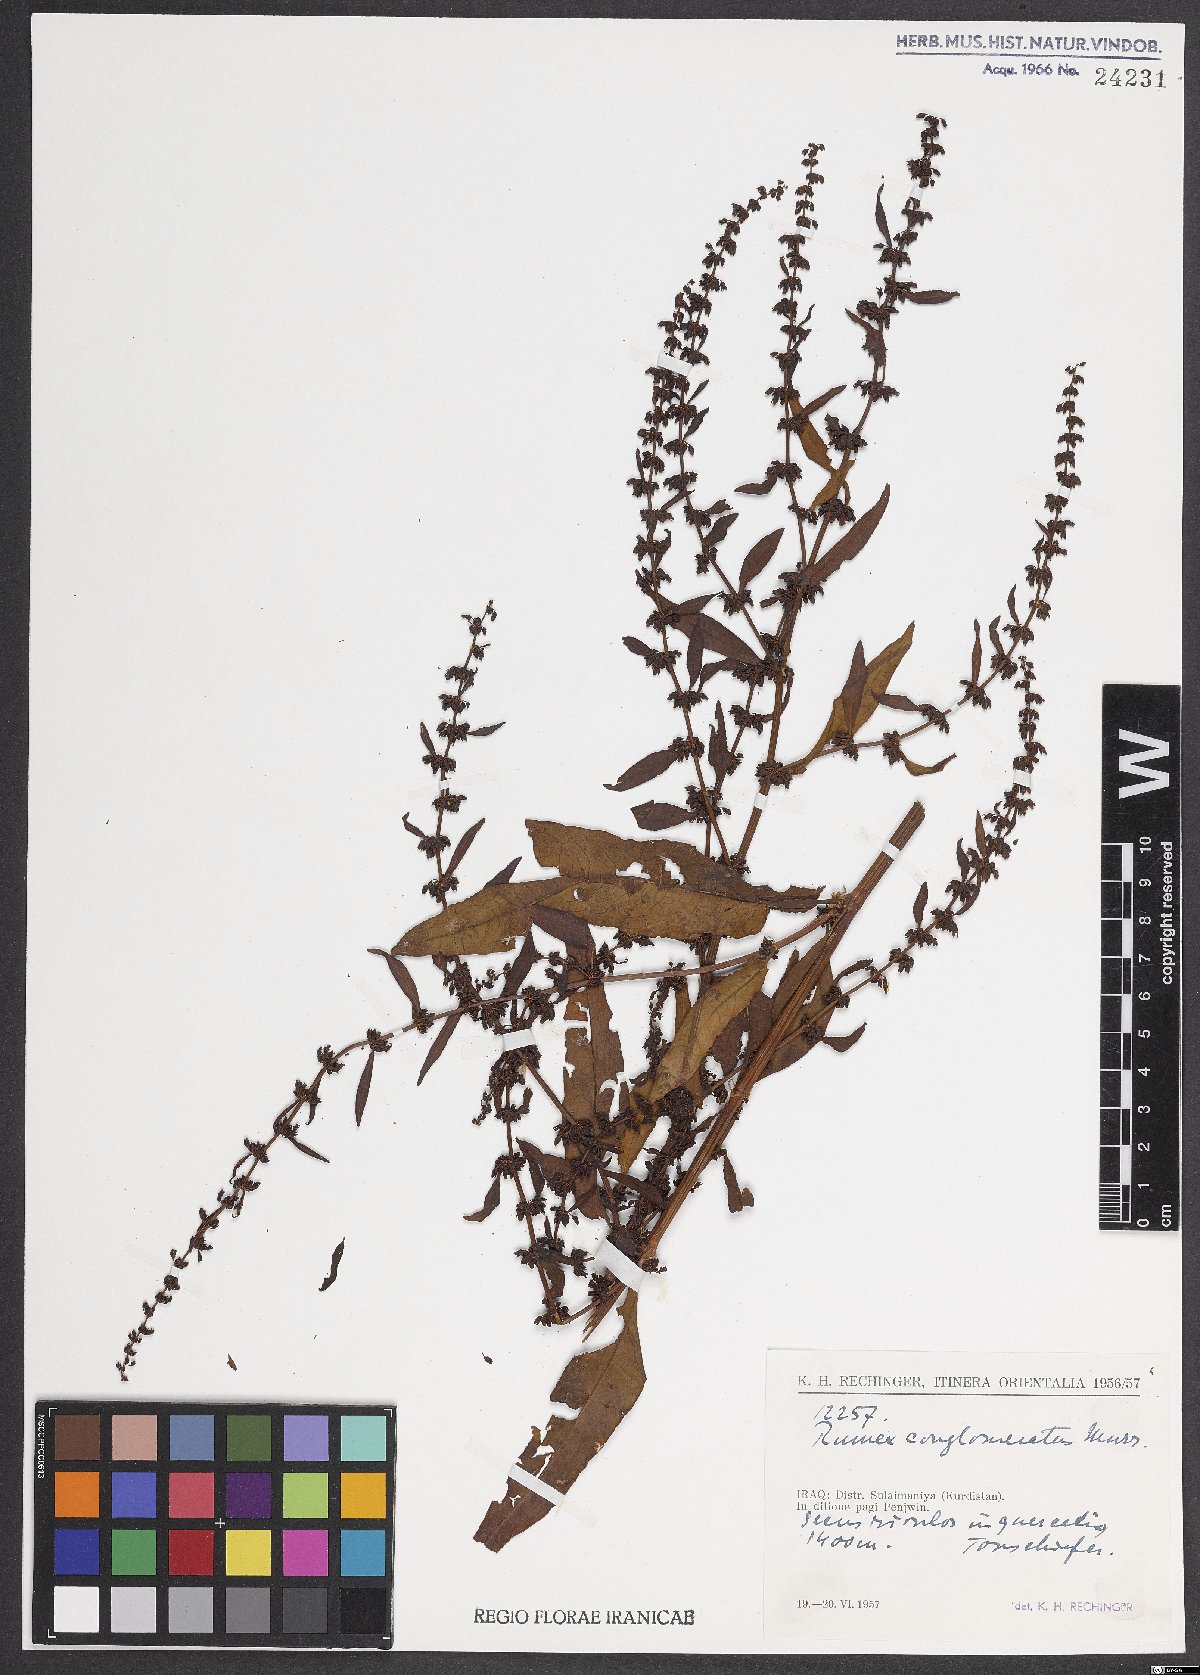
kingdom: Plantae
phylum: Tracheophyta
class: Magnoliopsida
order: Caryophyllales
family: Polygonaceae
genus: Rumex
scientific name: Rumex conglomeratus
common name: Clustered dock
